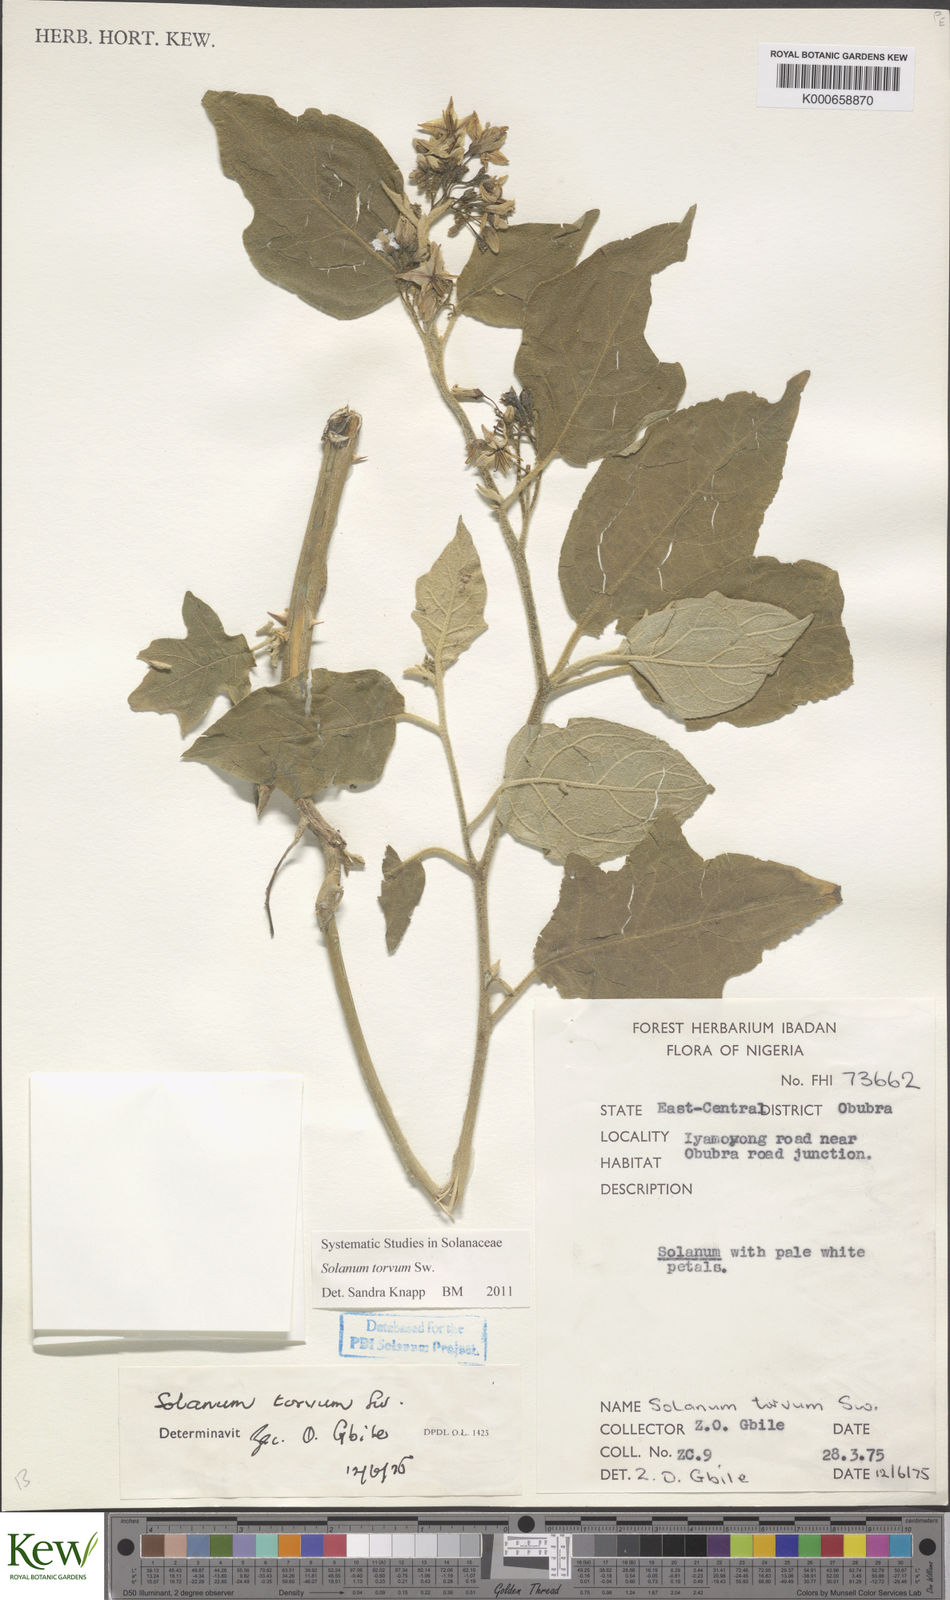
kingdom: Plantae
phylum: Tracheophyta
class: Magnoliopsida
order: Solanales
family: Solanaceae
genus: Solanum
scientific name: Solanum torvum
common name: Turkey berry
